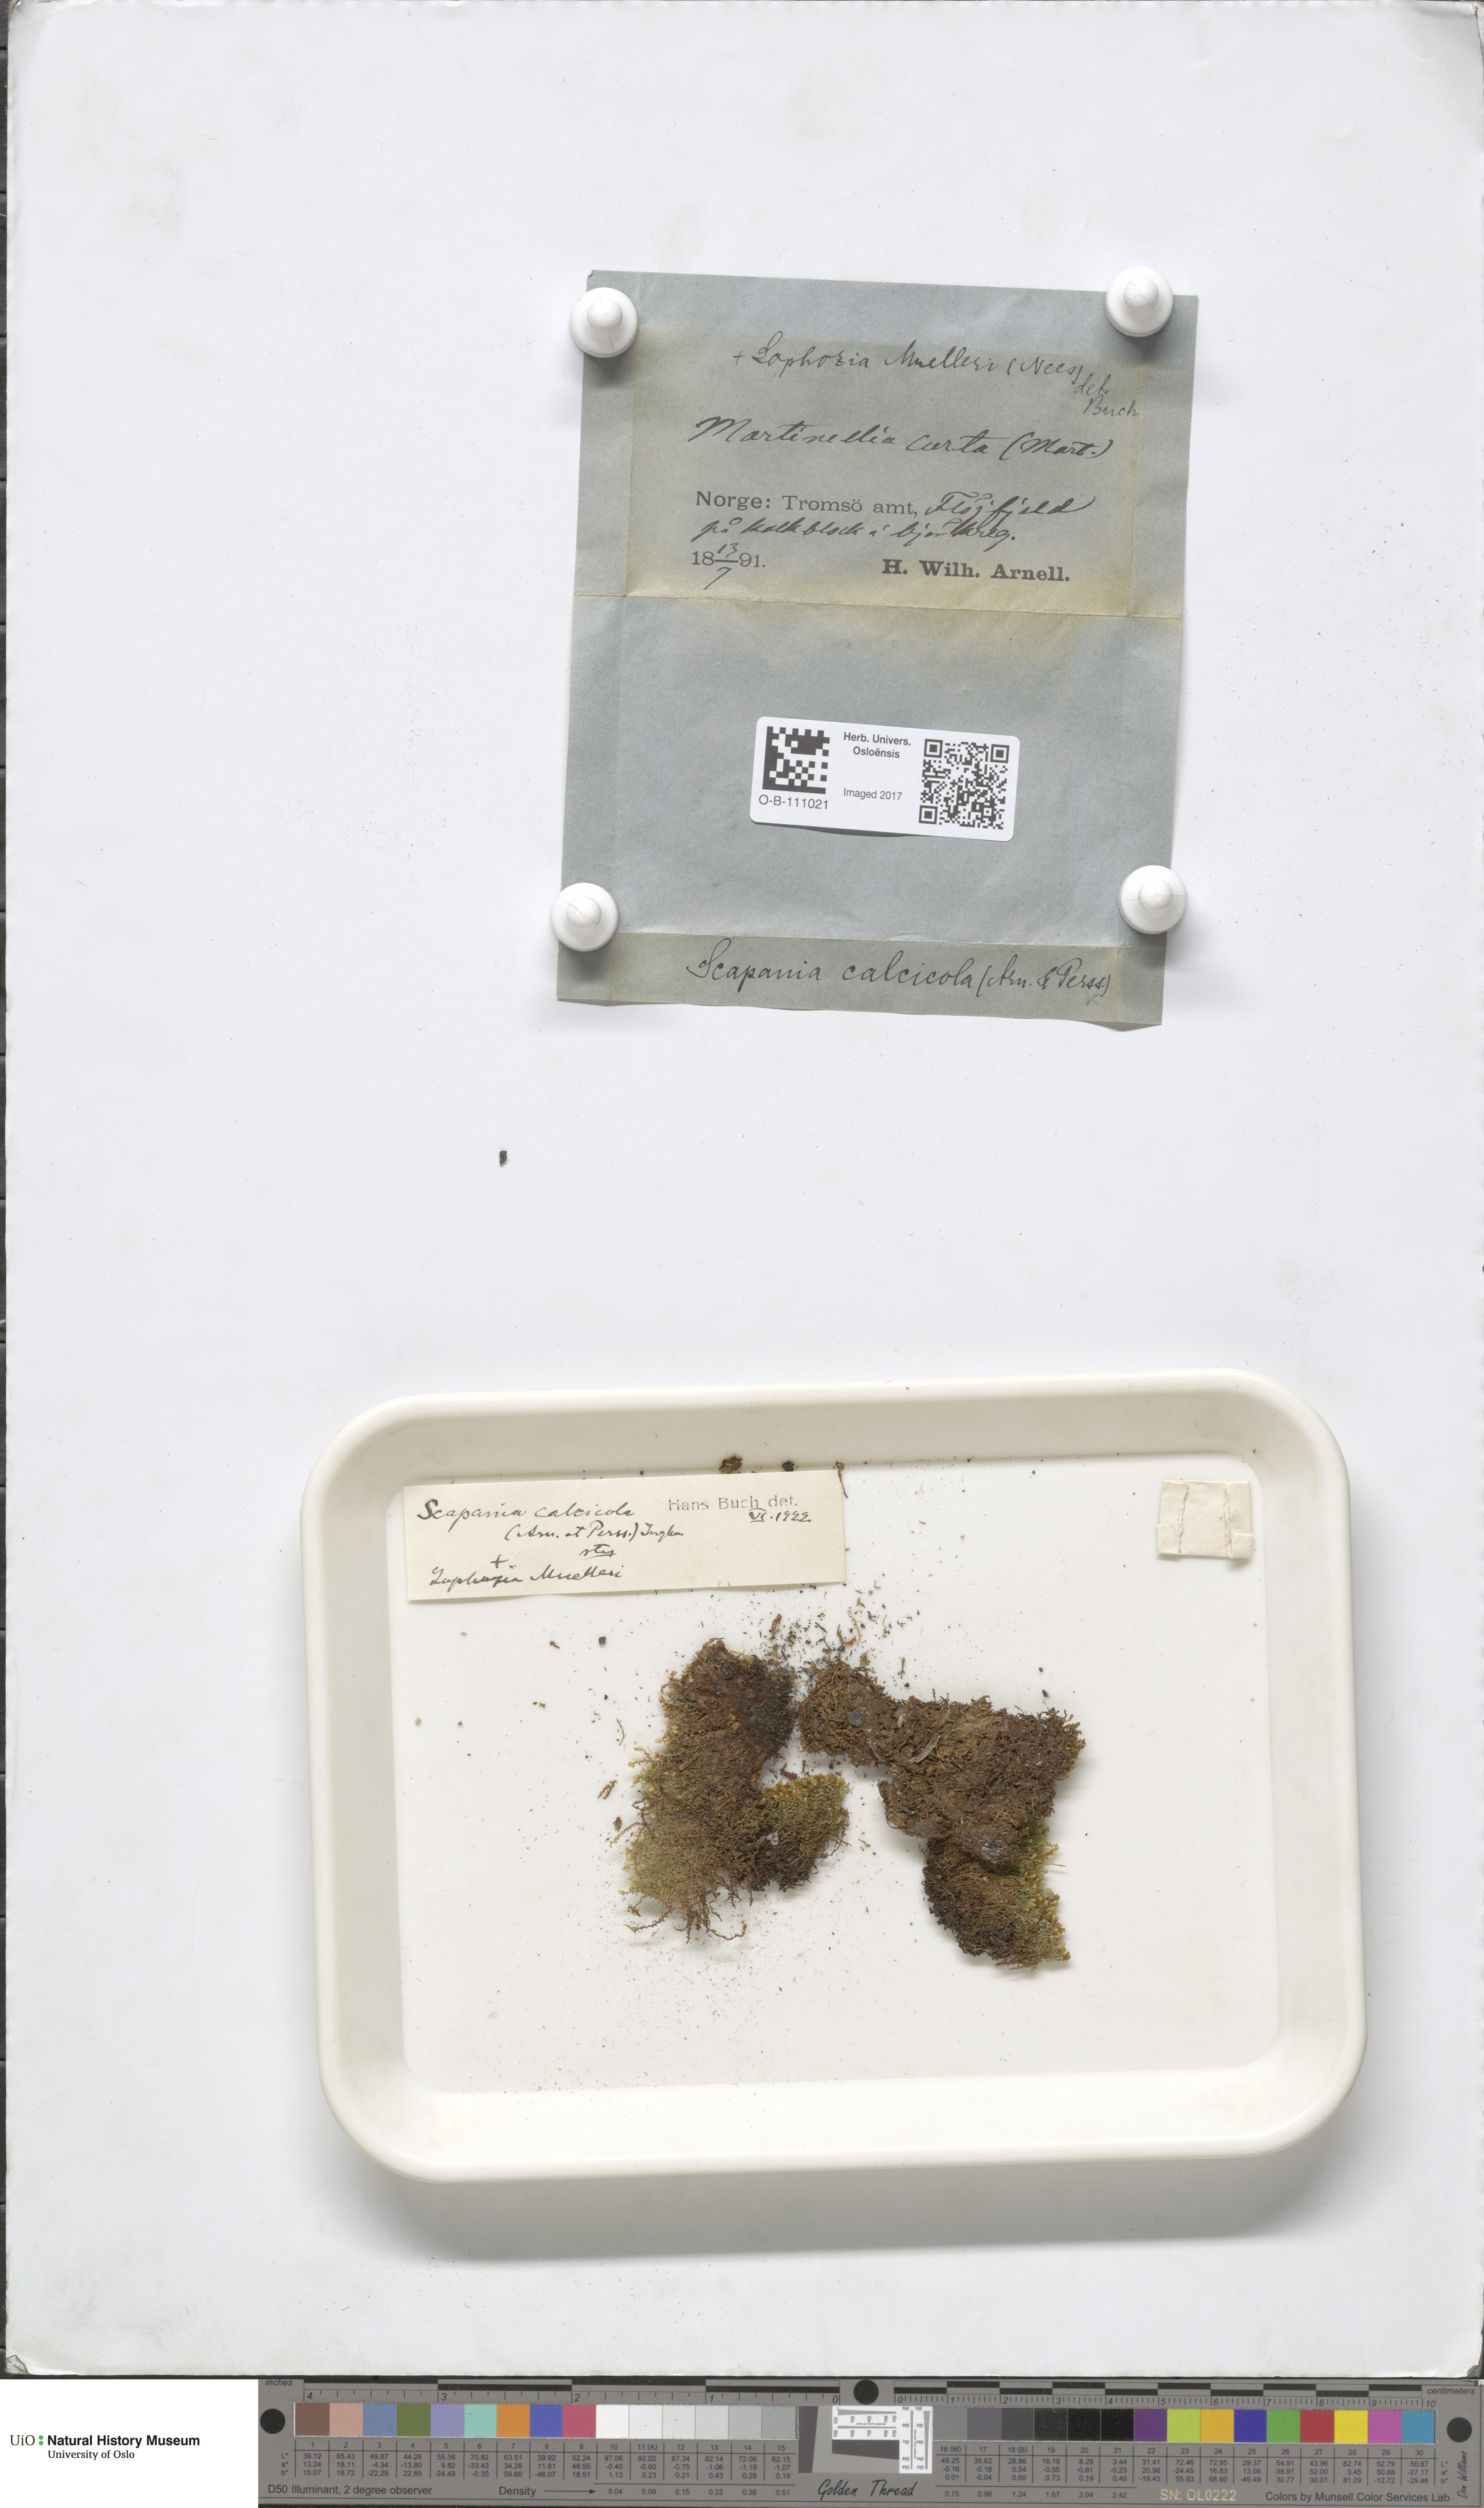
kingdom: Plantae
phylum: Marchantiophyta
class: Jungermanniopsida
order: Jungermanniales
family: Scapaniaceae
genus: Scapania
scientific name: Scapania calcicola
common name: Calcicolous earwort
